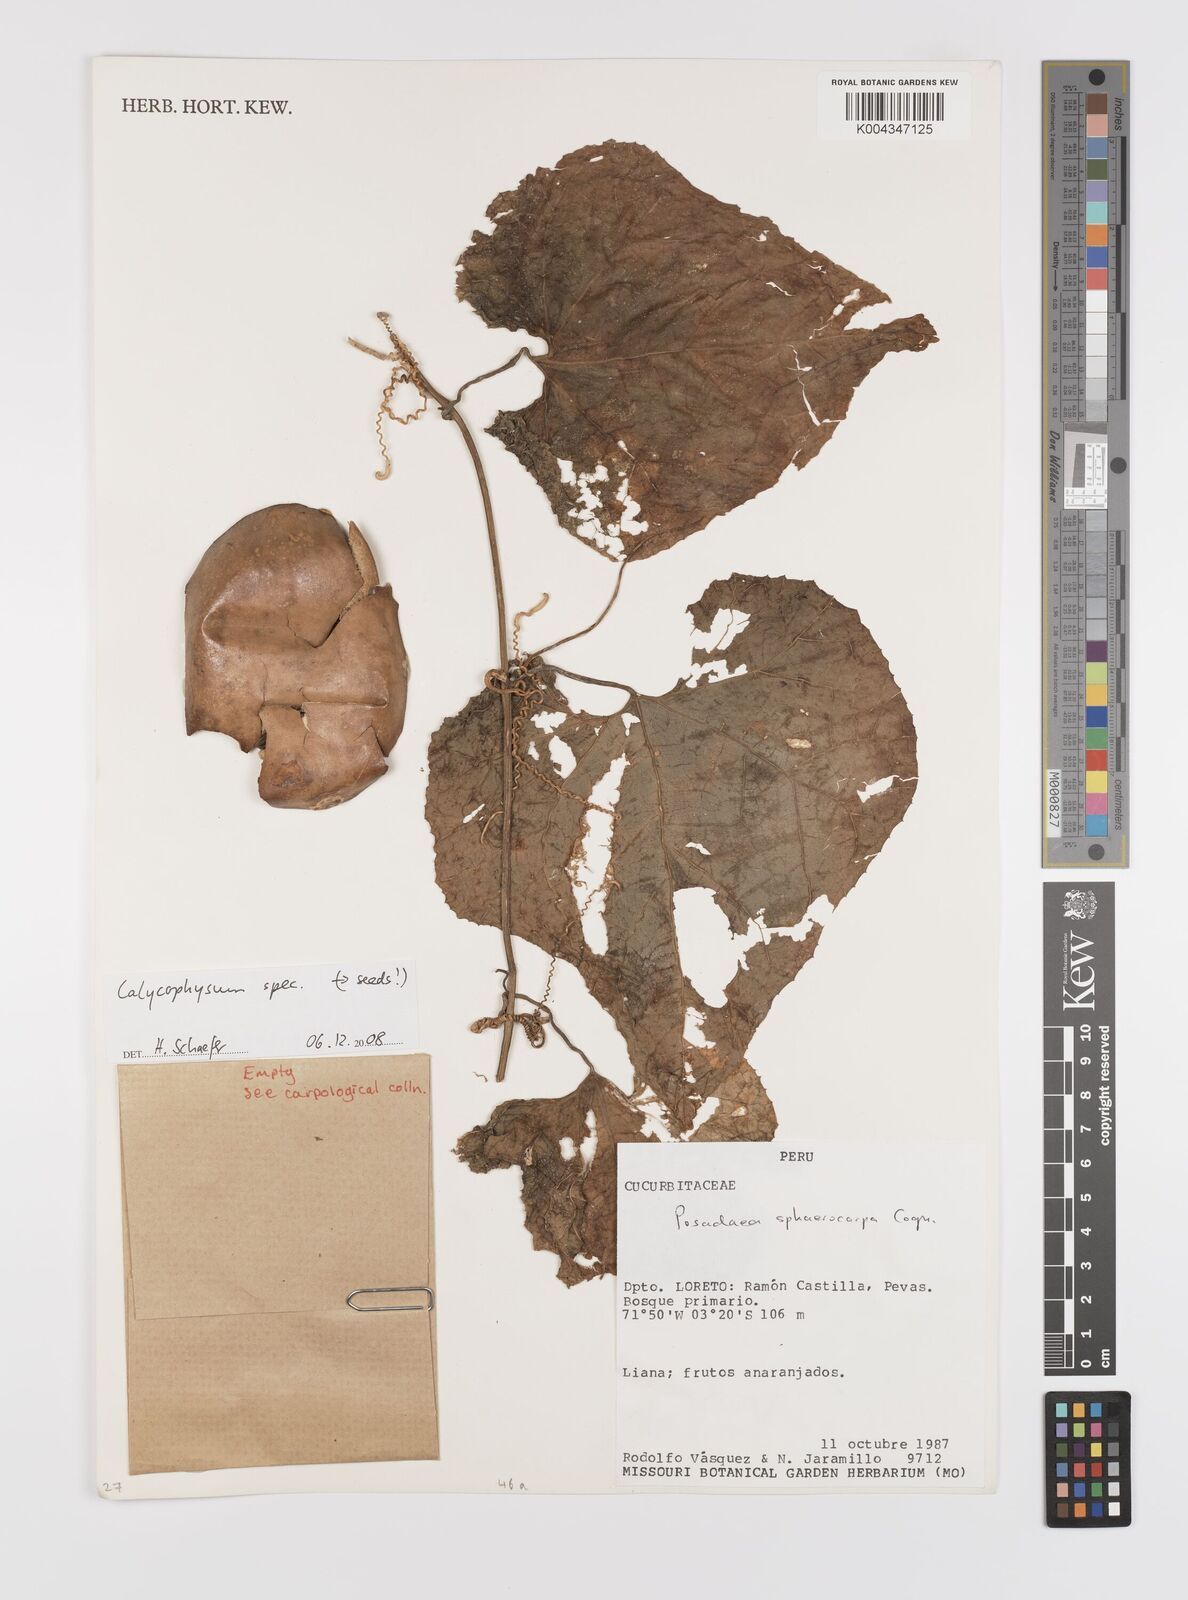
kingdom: Plantae
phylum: Tracheophyta
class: Magnoliopsida
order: Cucurbitales
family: Cucurbitaceae
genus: Calycophysum
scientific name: Calycophysum
